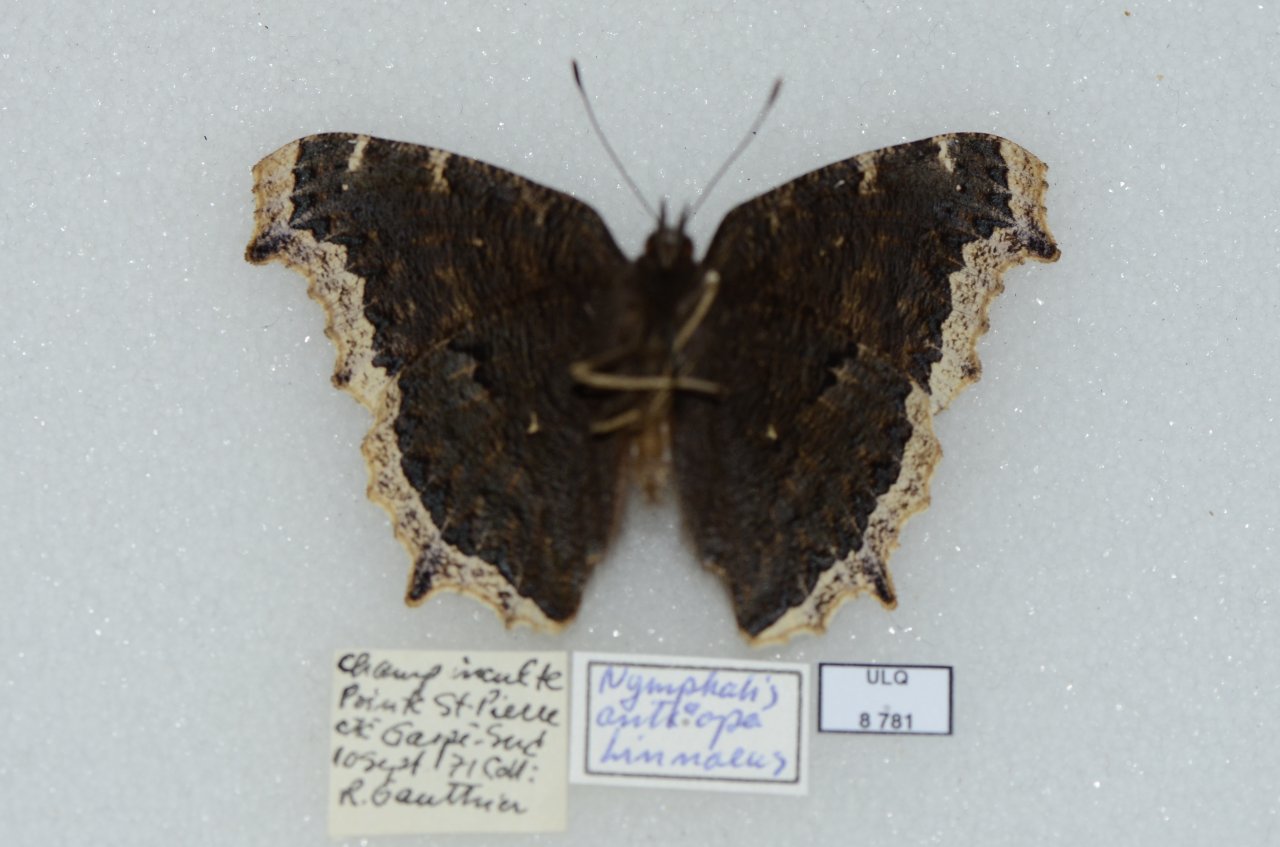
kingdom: Animalia
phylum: Arthropoda
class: Insecta
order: Lepidoptera
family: Nymphalidae
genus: Nymphalis
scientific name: Nymphalis antiopa
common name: Mourning Cloak
